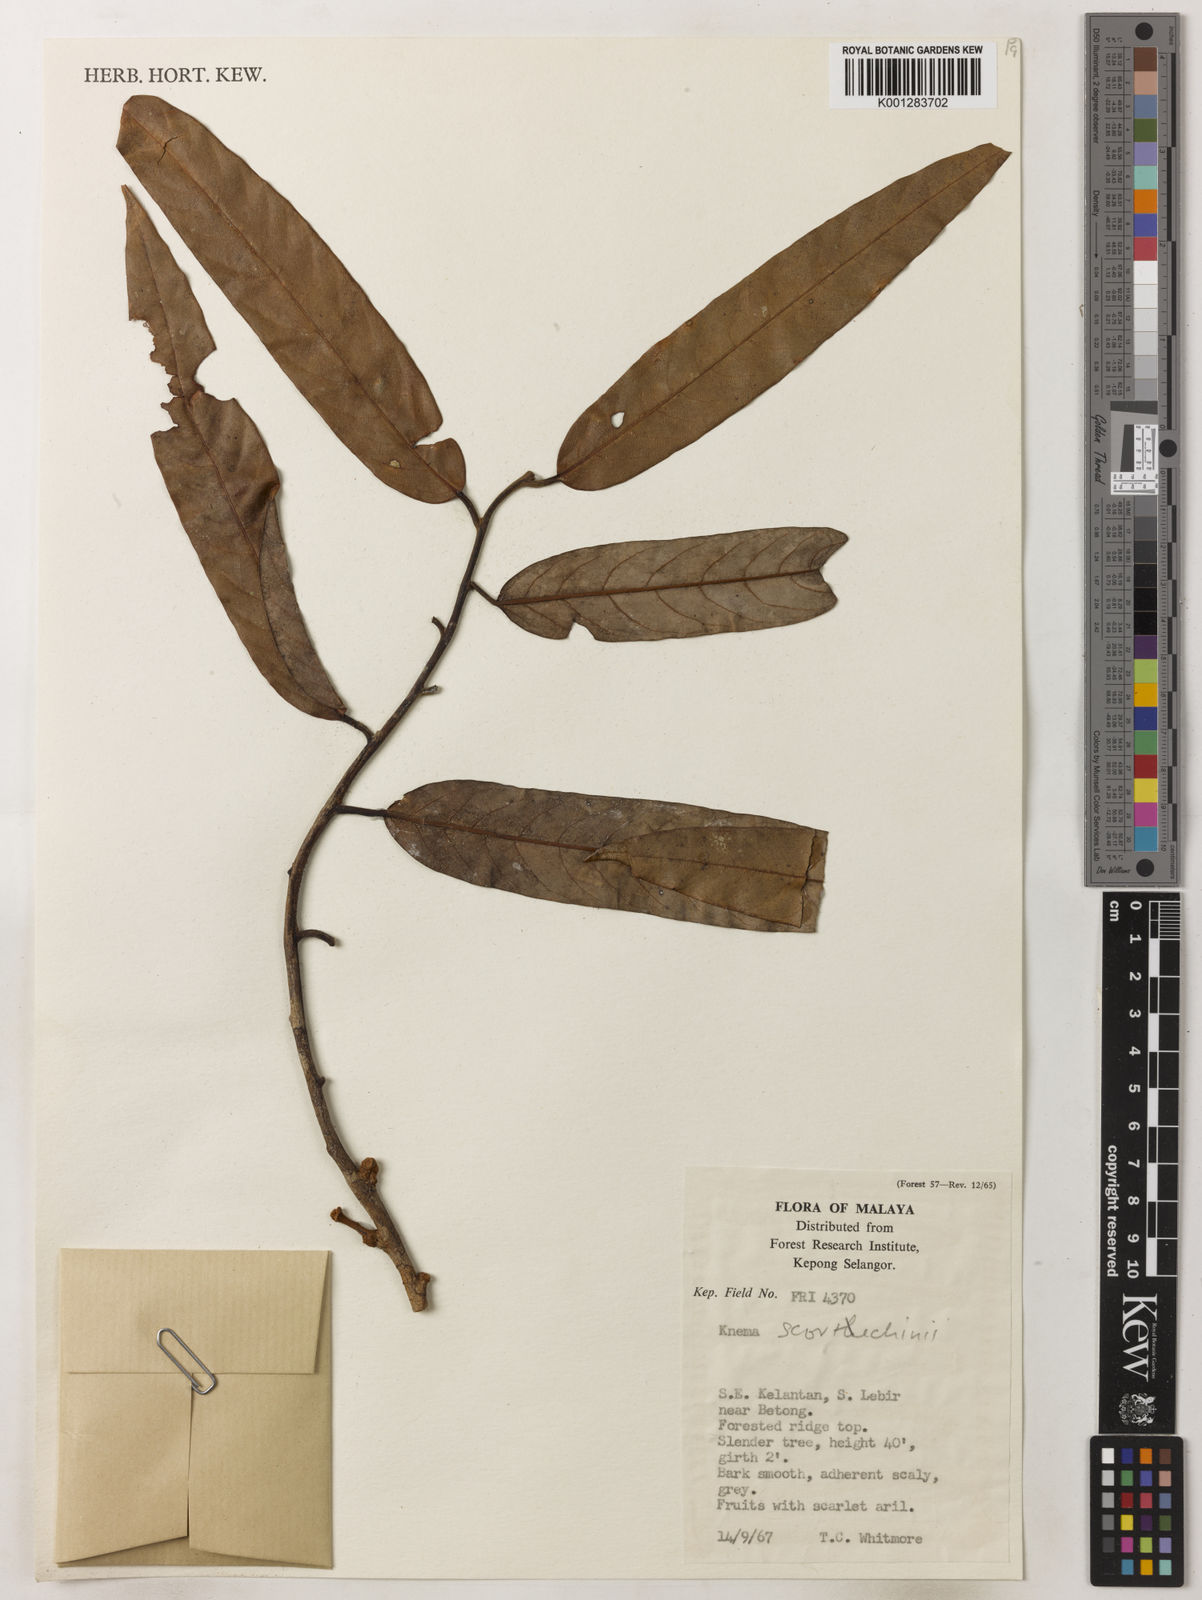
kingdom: Plantae
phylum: Tracheophyta
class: Magnoliopsida
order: Magnoliales
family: Myristicaceae
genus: Knema
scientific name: Knema scortechinii
